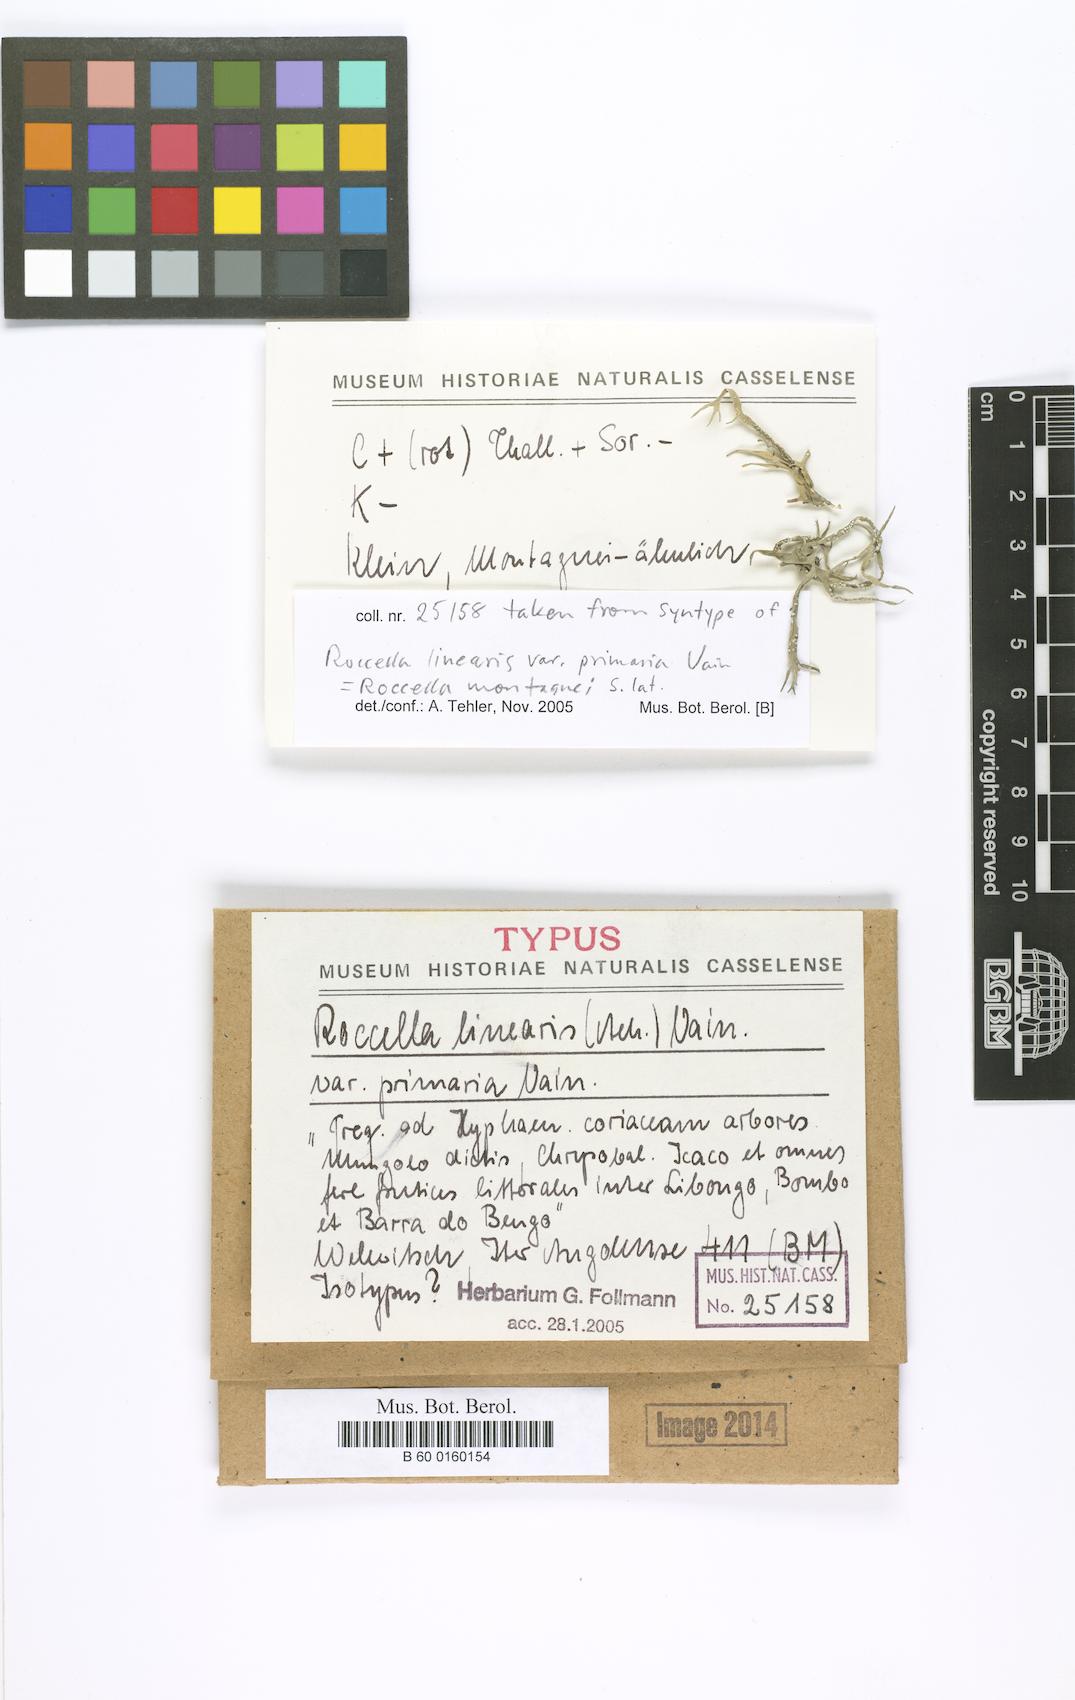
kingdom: Fungi
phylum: Ascomycota
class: Arthoniomycetes
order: Arthoniales
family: Roccellaceae
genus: Roccella
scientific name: Roccella linearis
